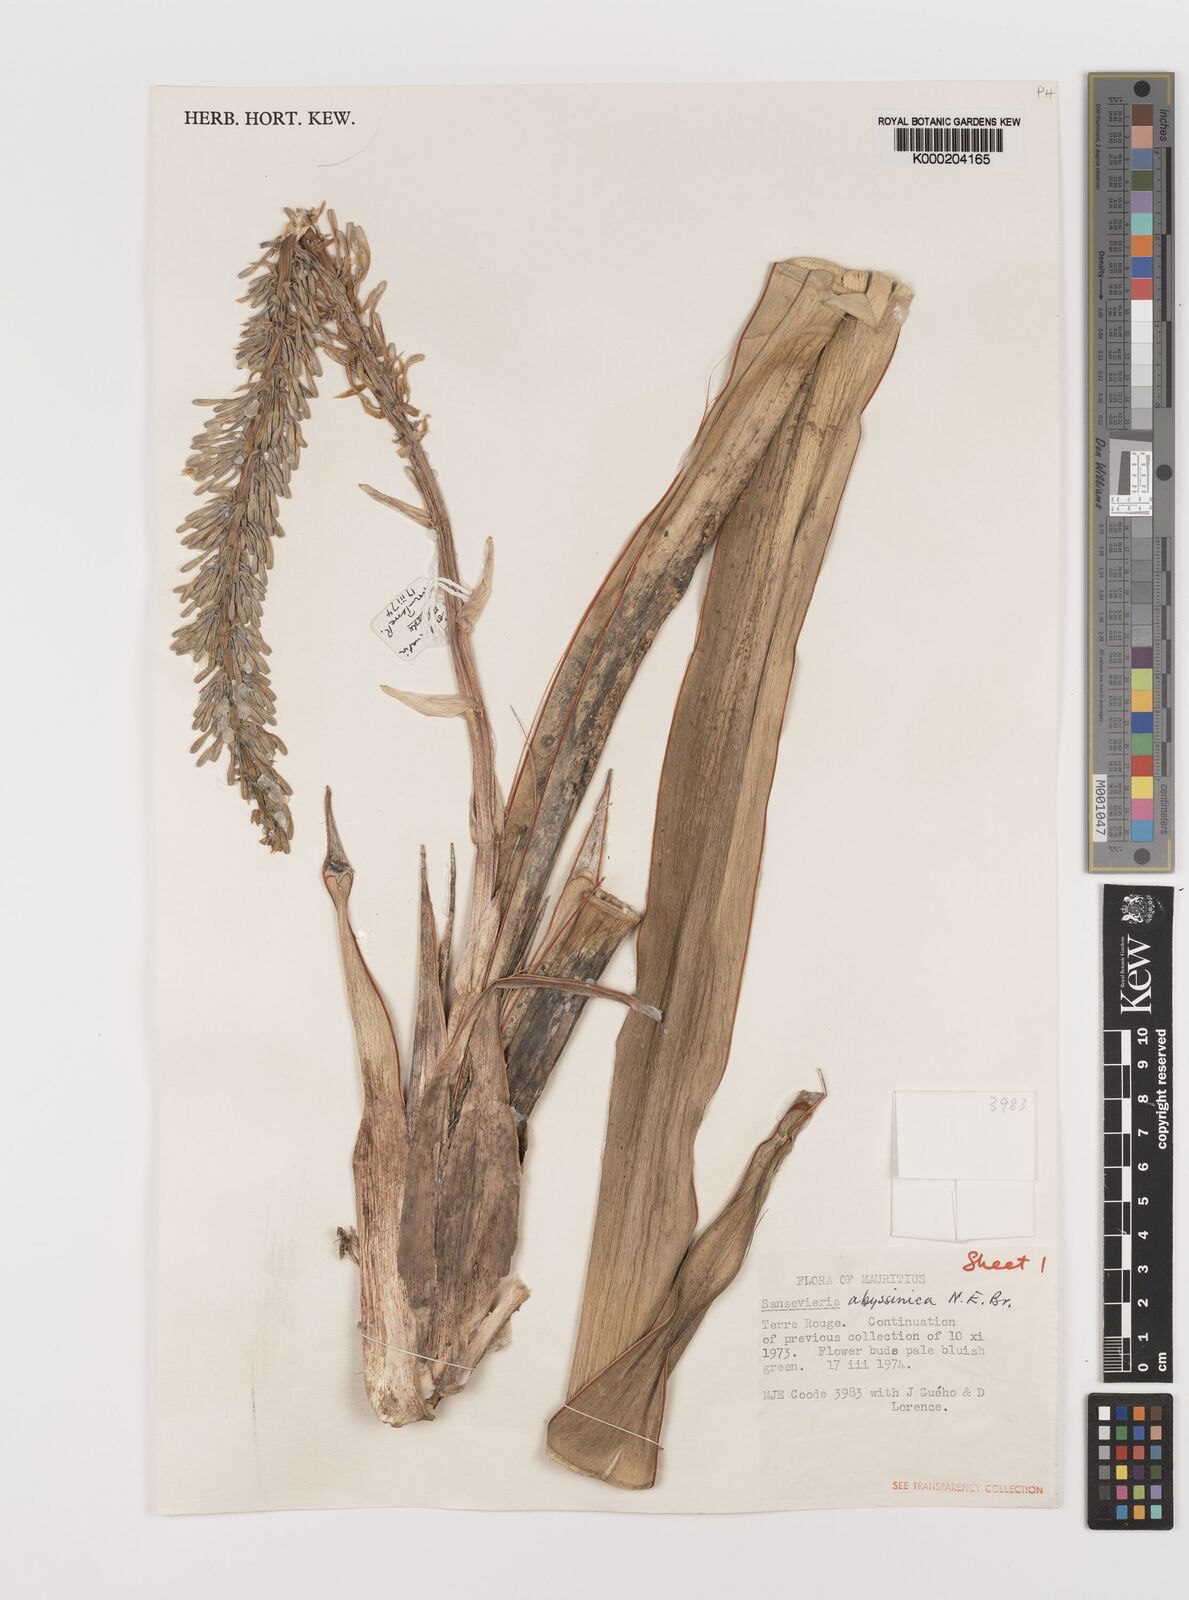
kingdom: Plantae
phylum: Tracheophyta
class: Liliopsida
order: Asparagales
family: Asparagaceae
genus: Dracaena
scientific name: Dracaena
